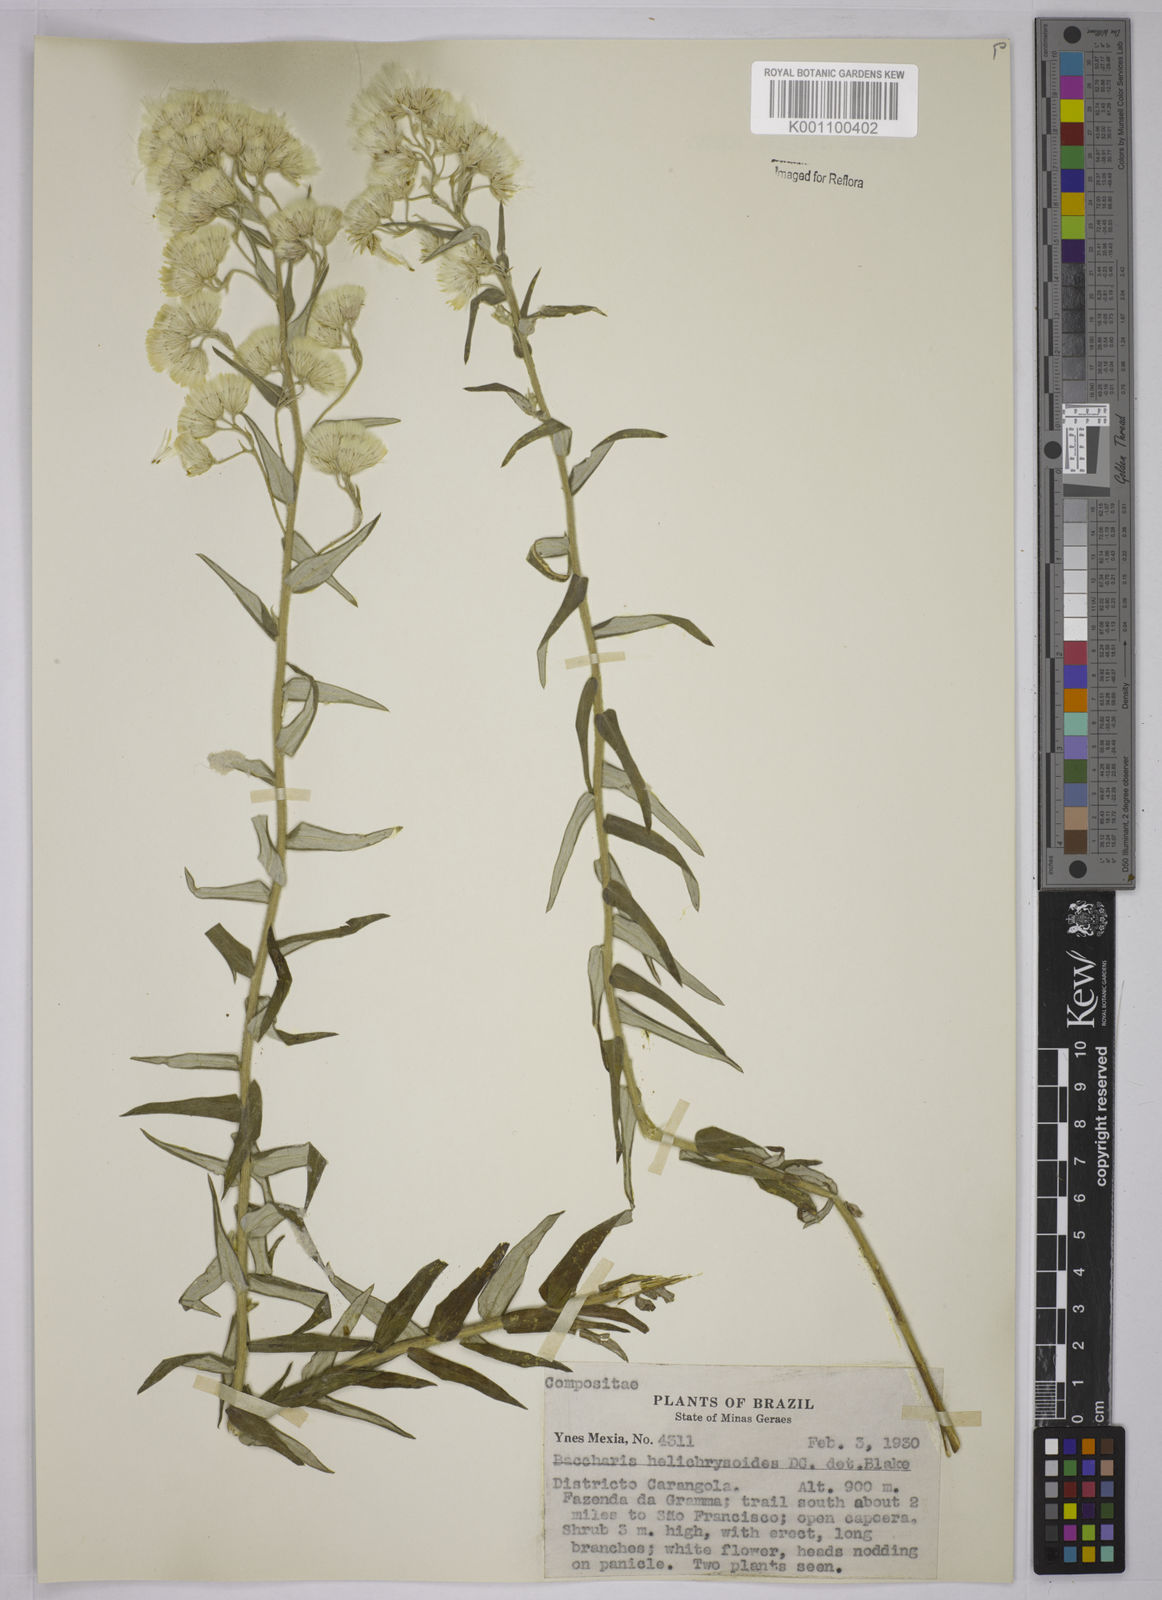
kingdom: Plantae
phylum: Tracheophyta
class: Magnoliopsida
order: Asterales
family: Asteraceae
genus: Baccharis
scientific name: Baccharis helichrysoides
